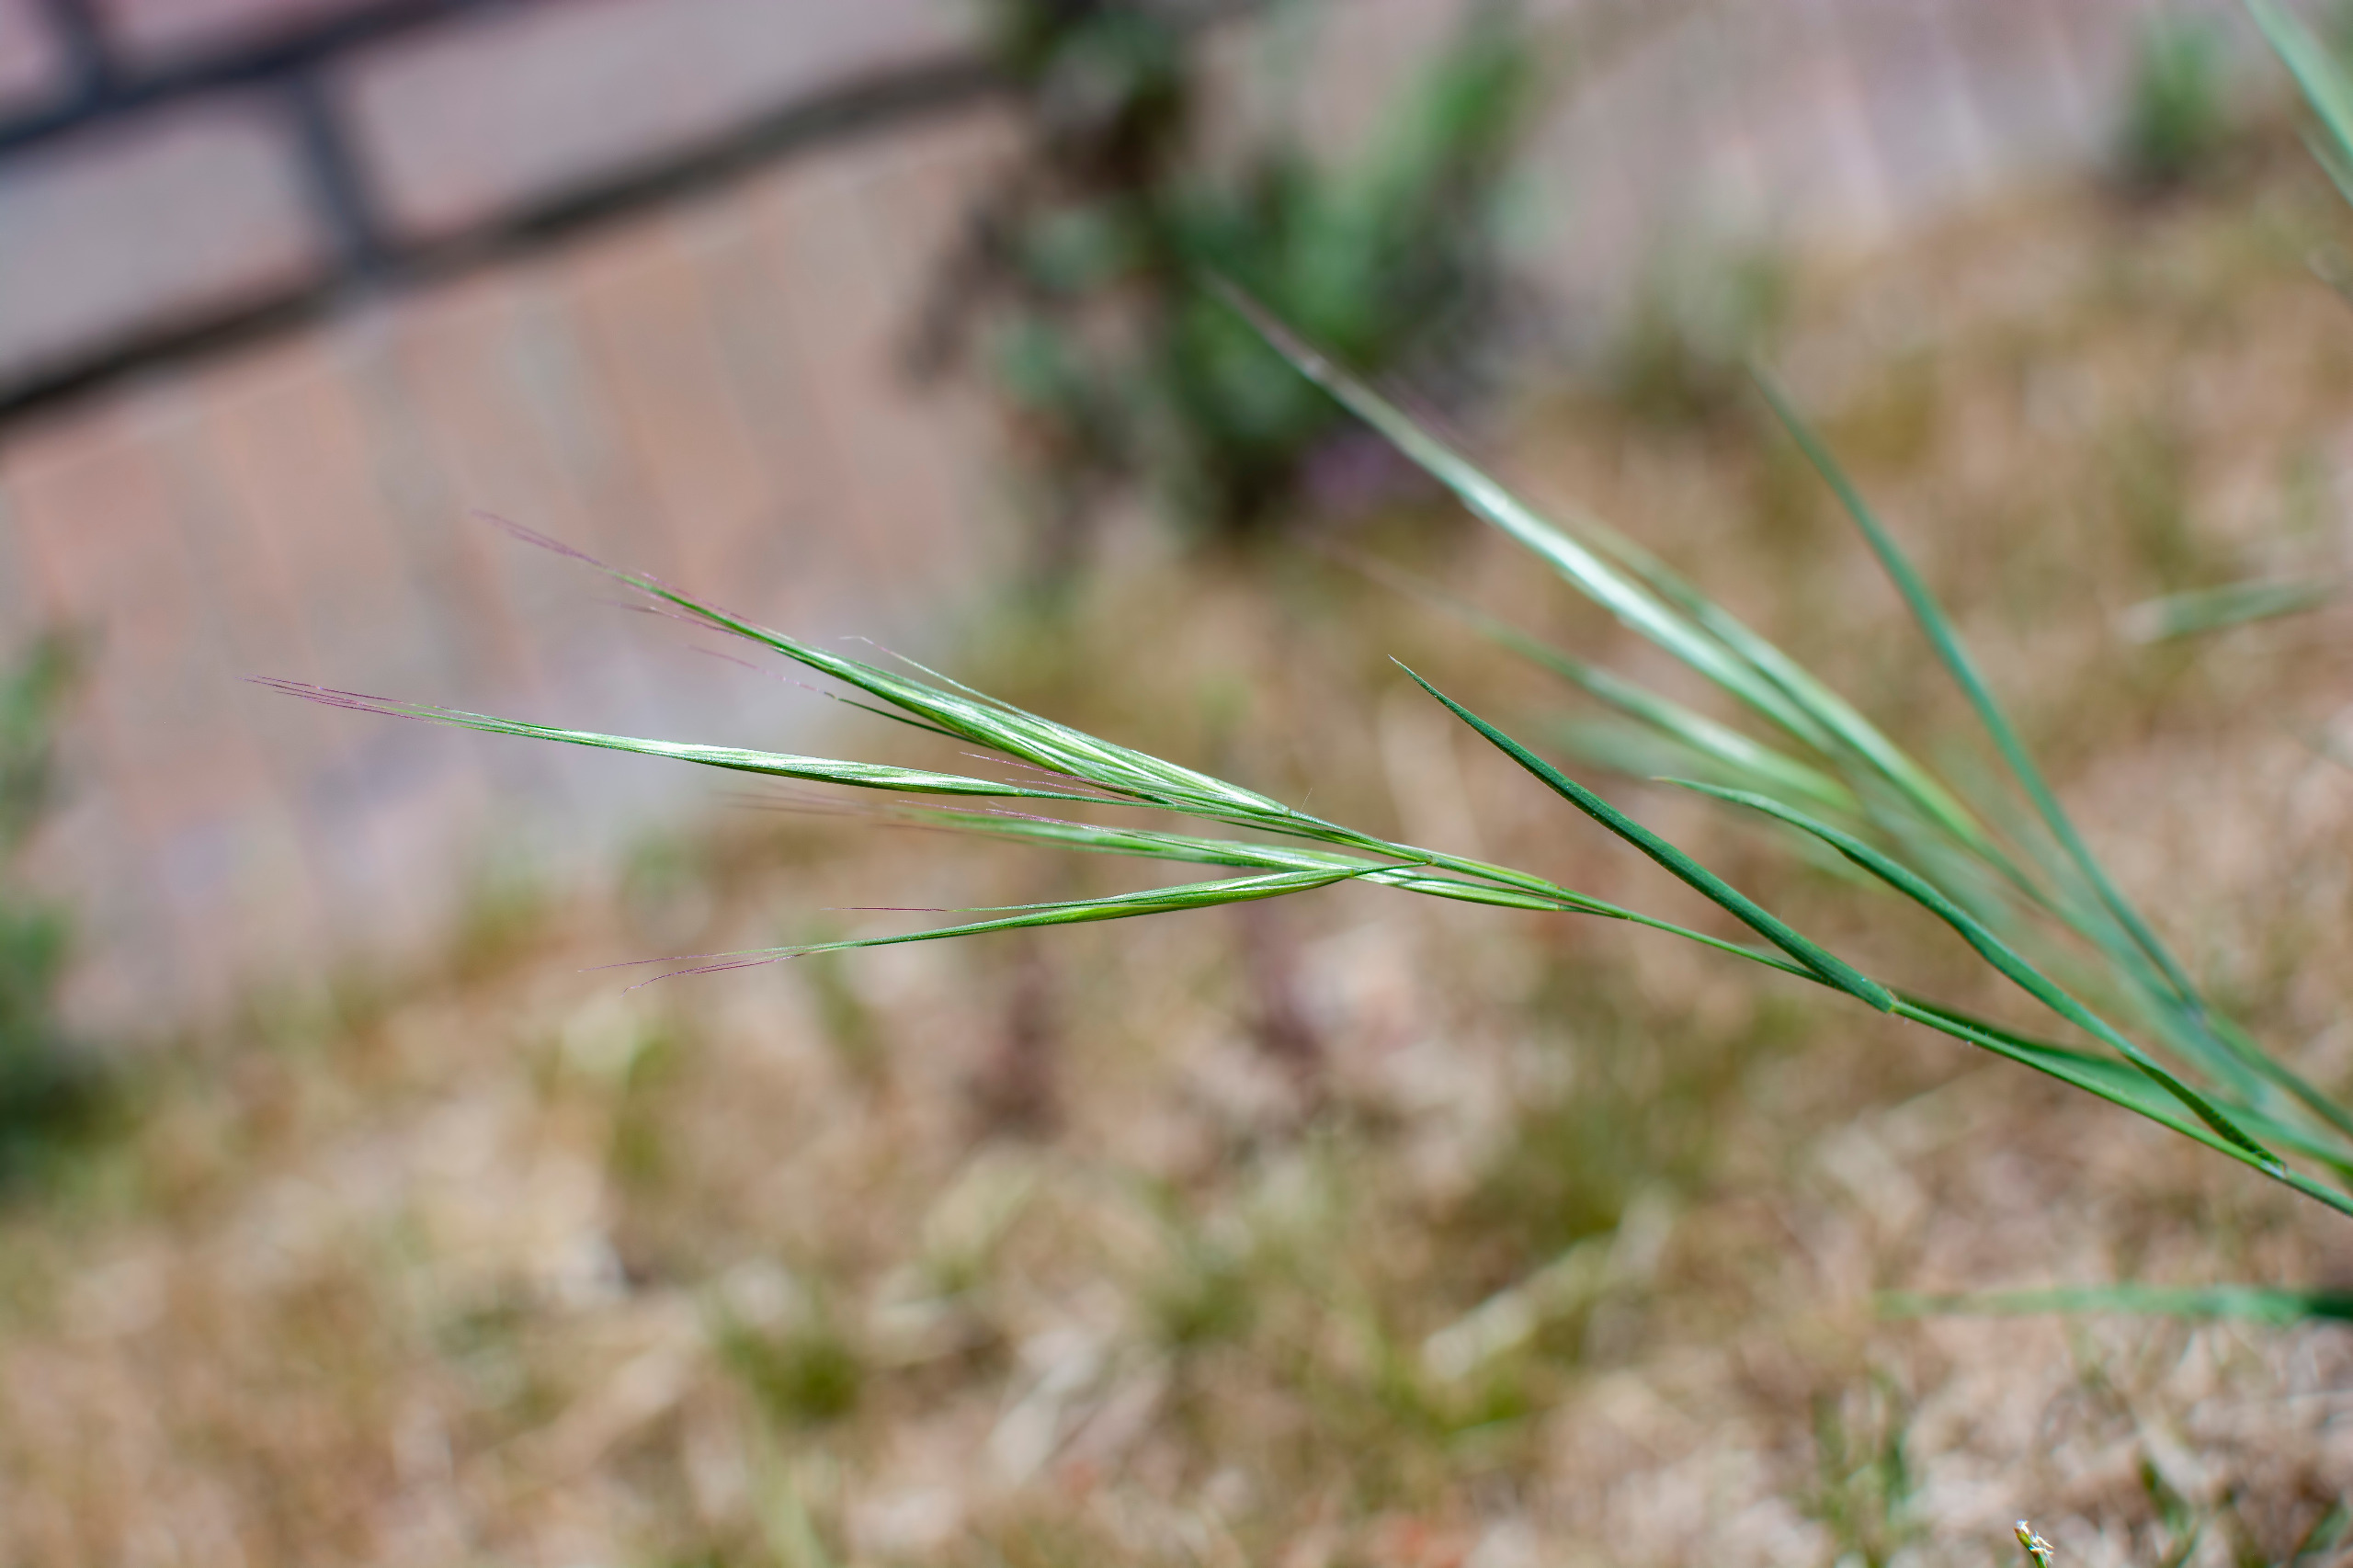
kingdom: Plantae
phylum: Tracheophyta
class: Liliopsida
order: Poales
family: Poaceae
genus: Bromus
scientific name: Bromus rigidus
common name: Stiv hejre
